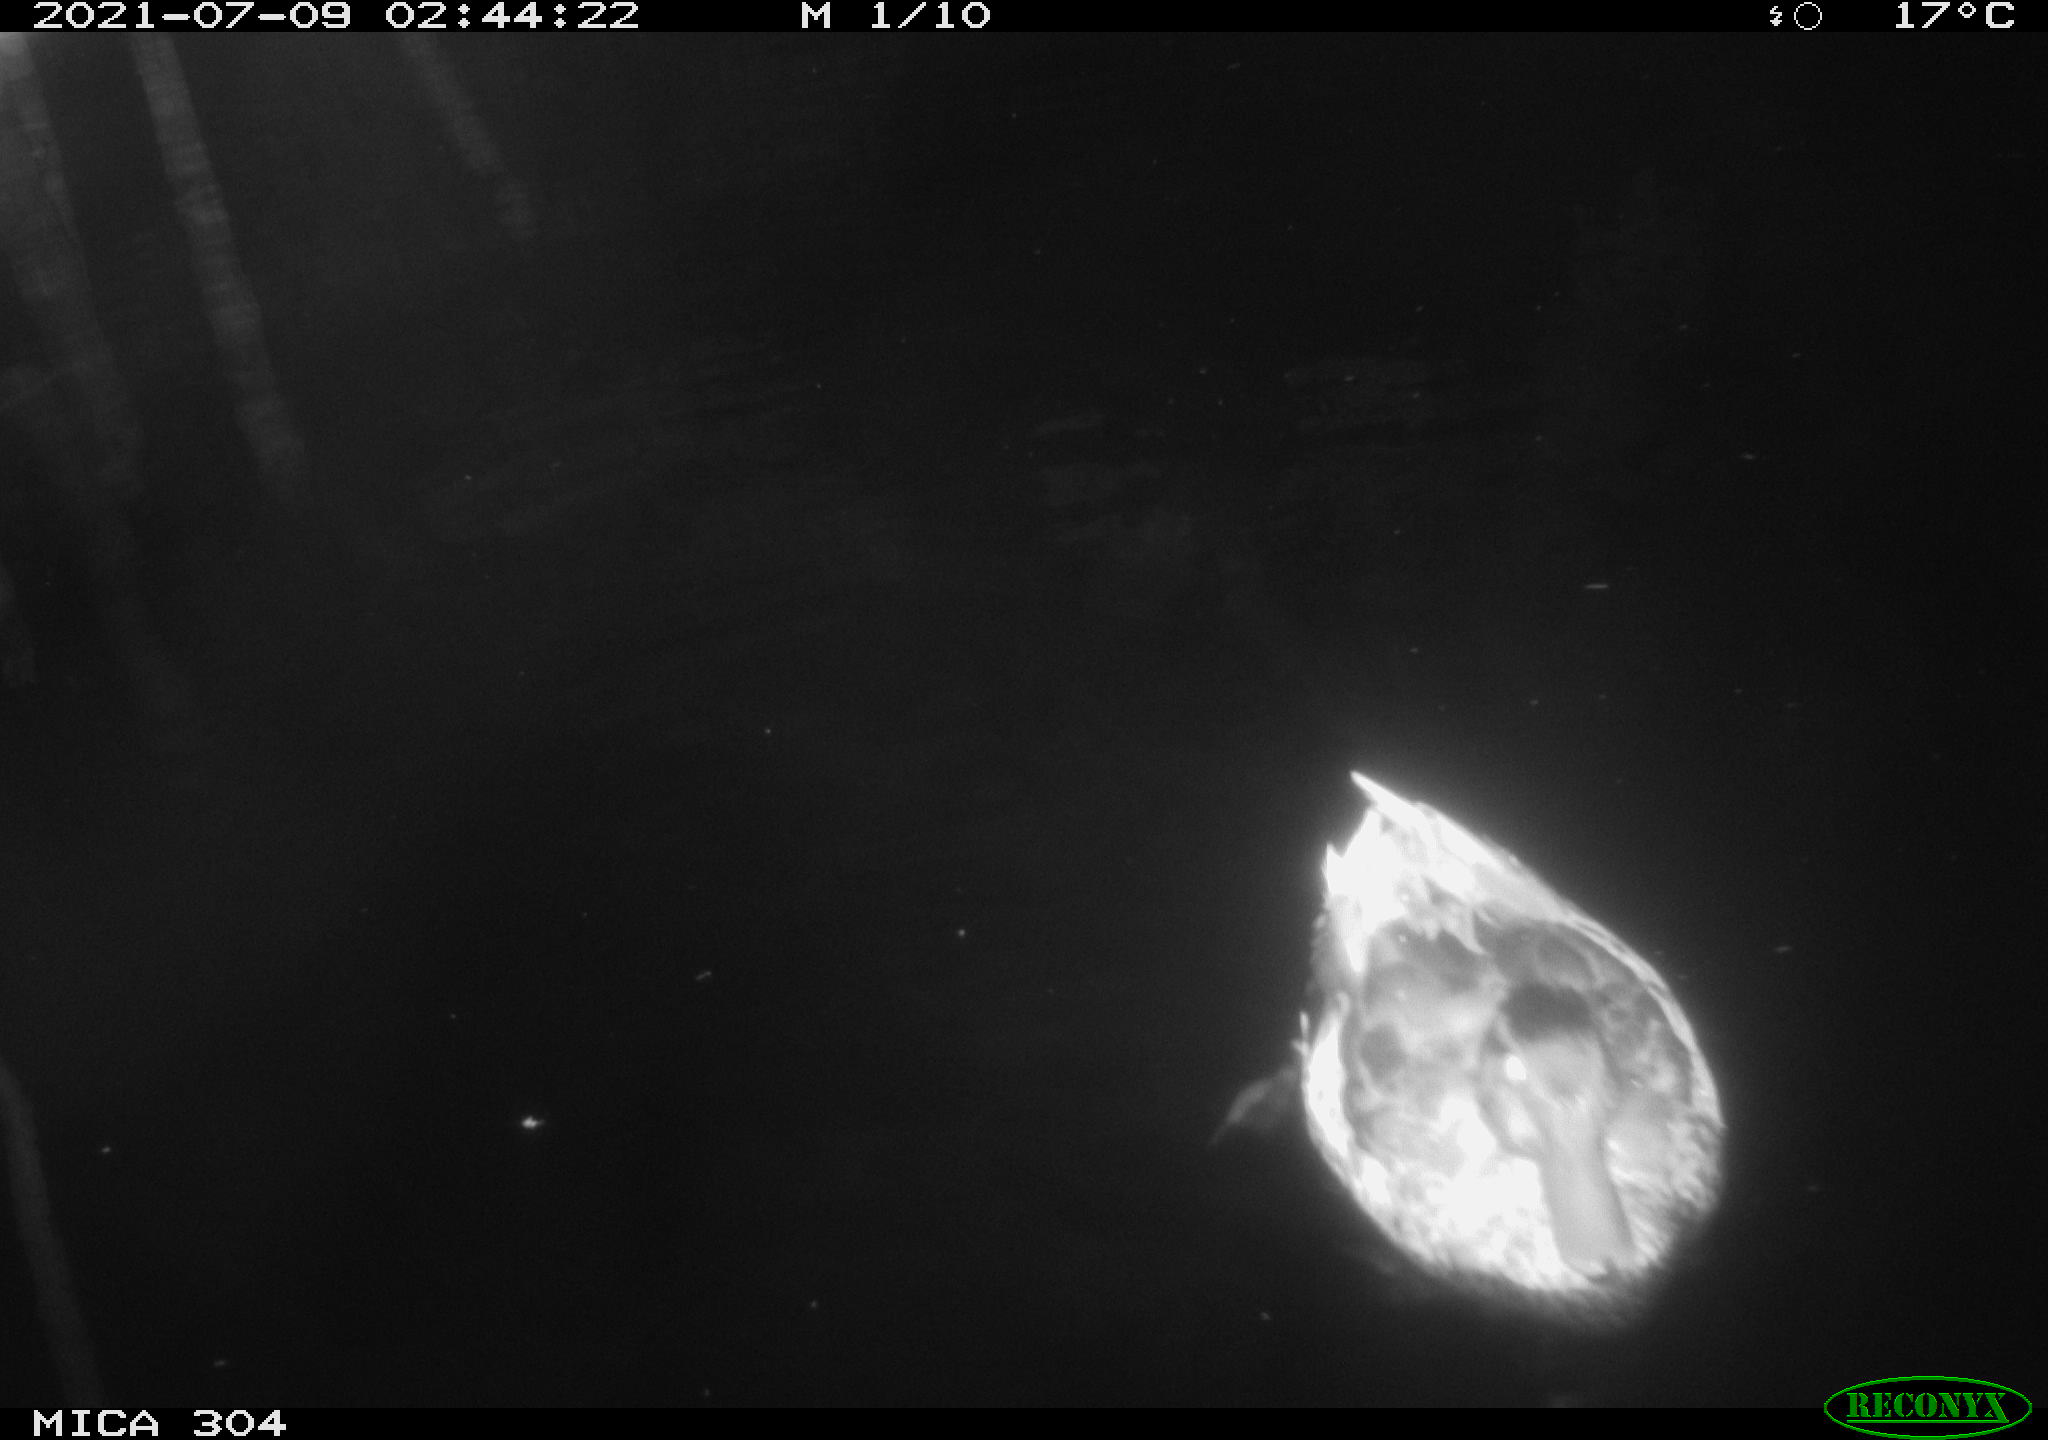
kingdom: Animalia
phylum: Chordata
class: Aves
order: Anseriformes
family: Anatidae
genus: Anas
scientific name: Anas platyrhynchos
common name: Mallard
